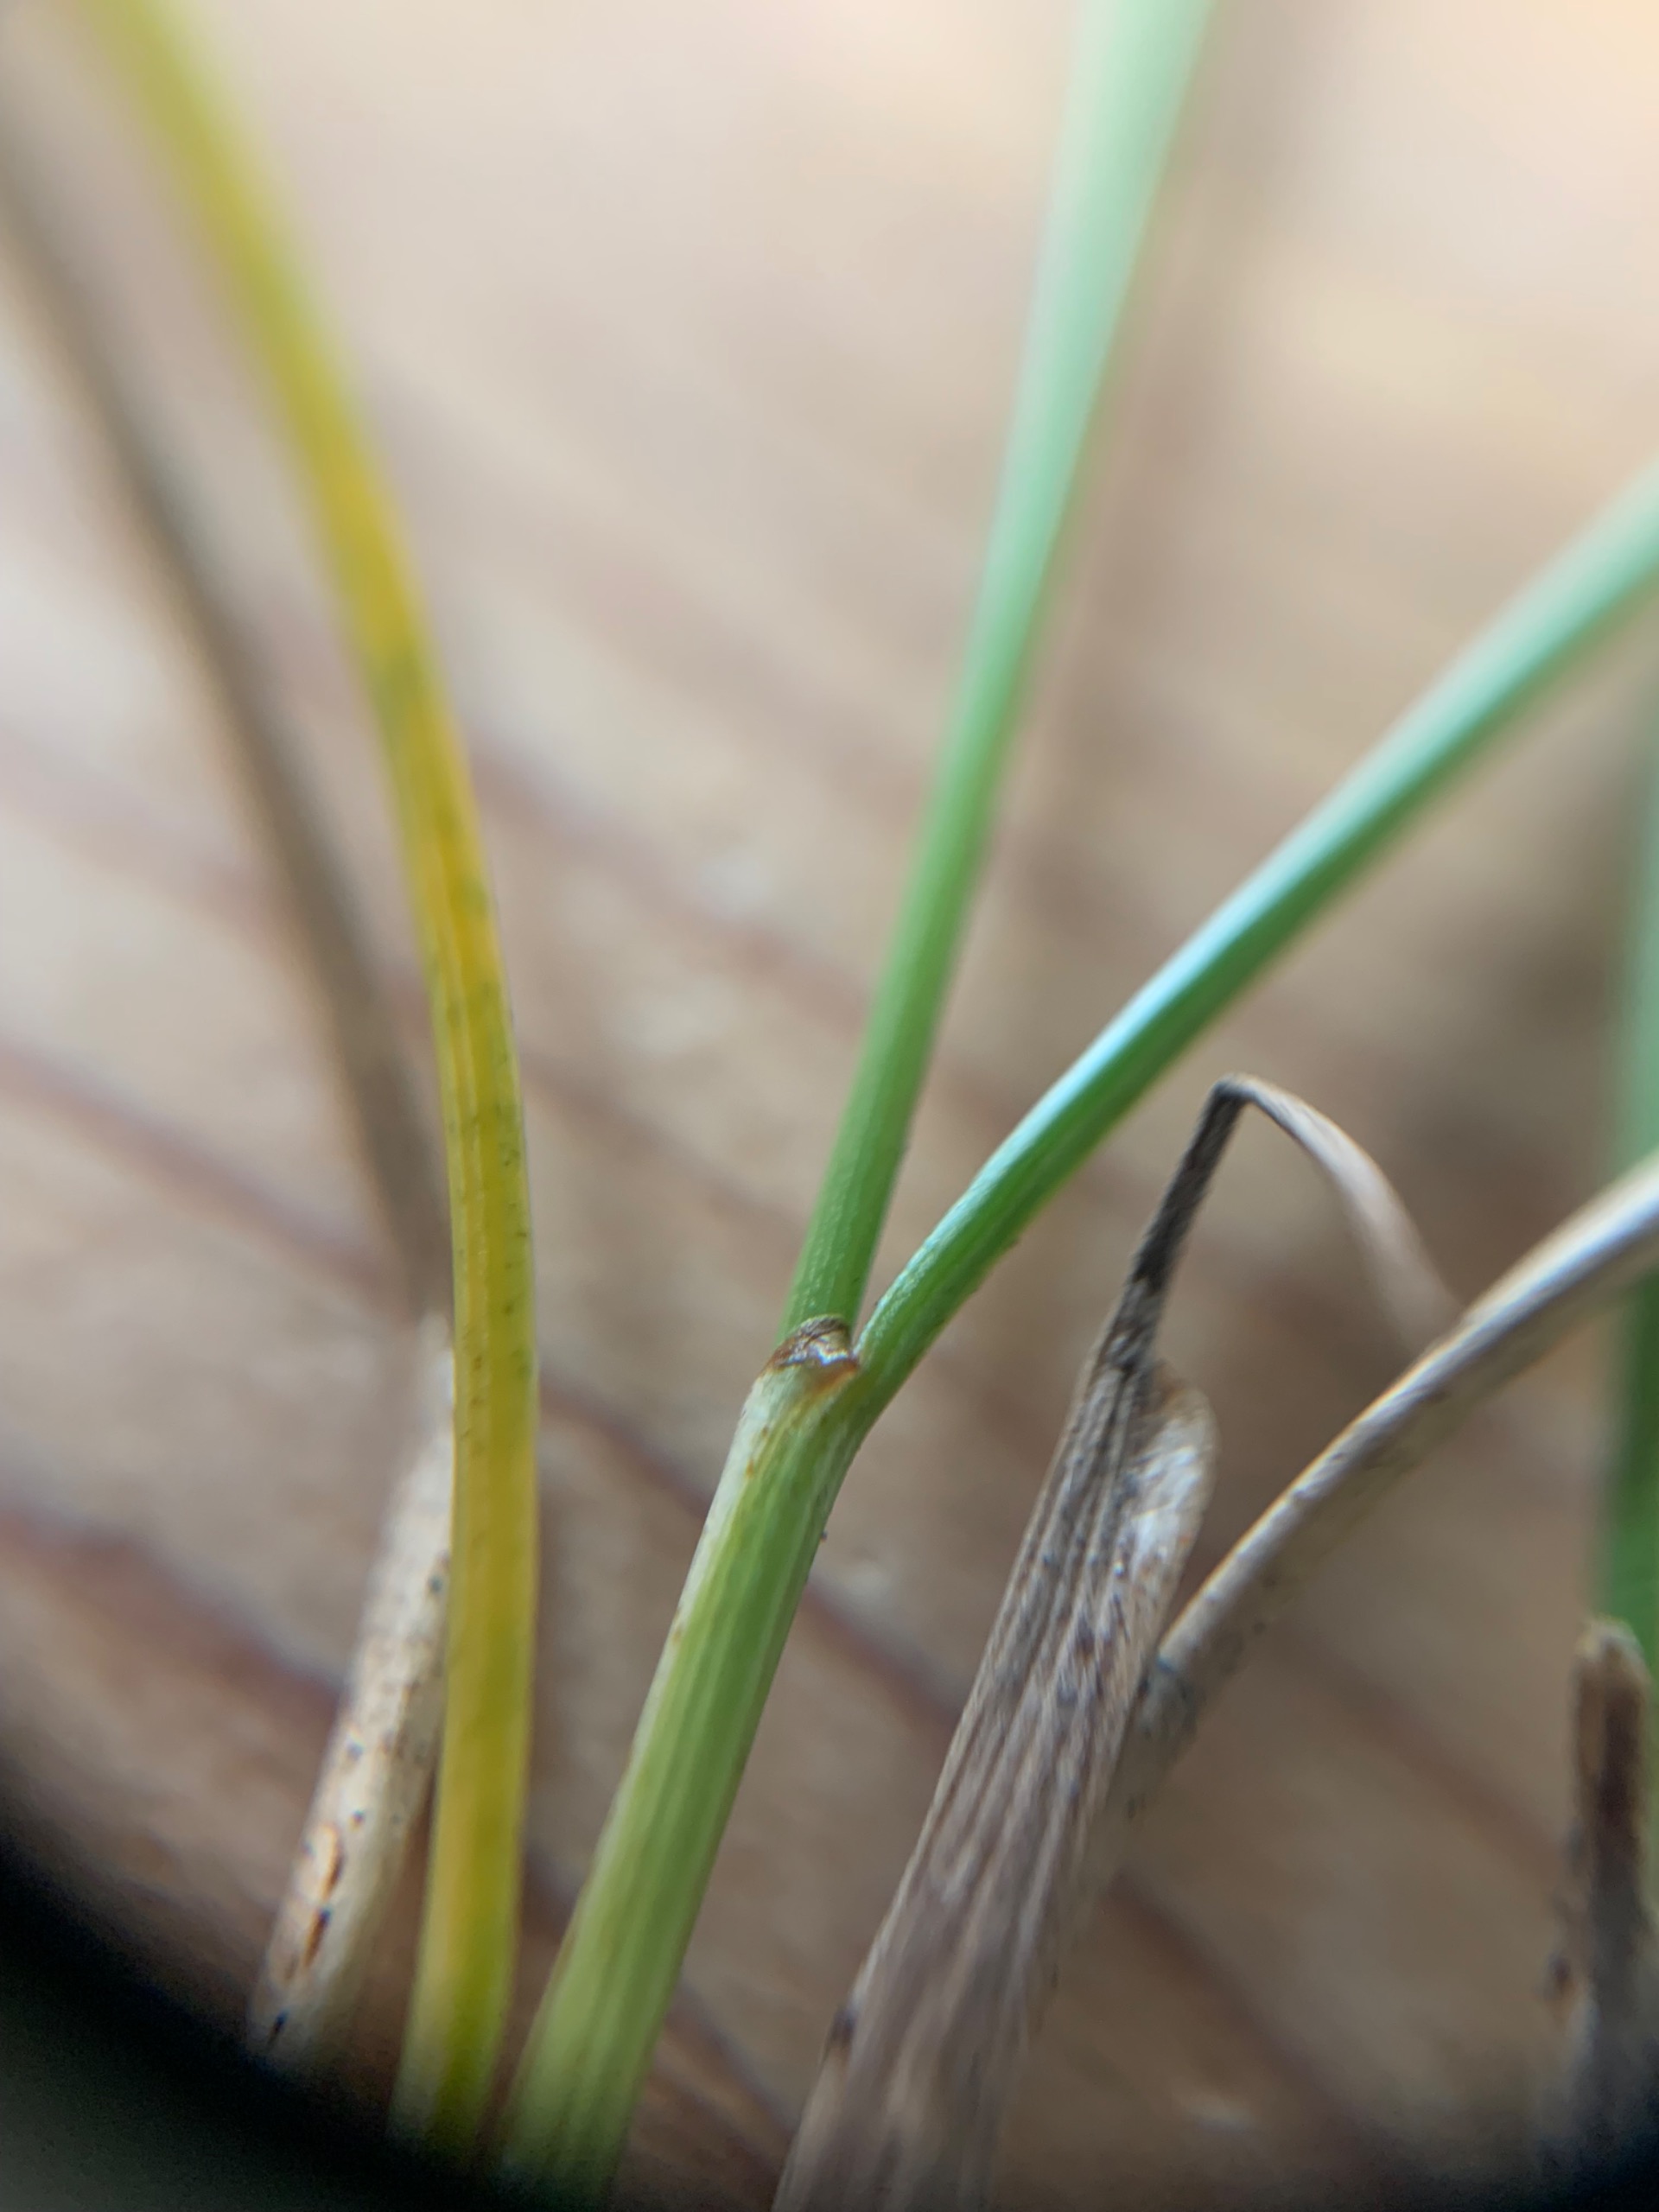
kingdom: Plantae
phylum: Tracheophyta
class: Liliopsida
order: Poales
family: Juncaceae
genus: Juncus
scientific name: Juncus gerardi
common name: Harril
